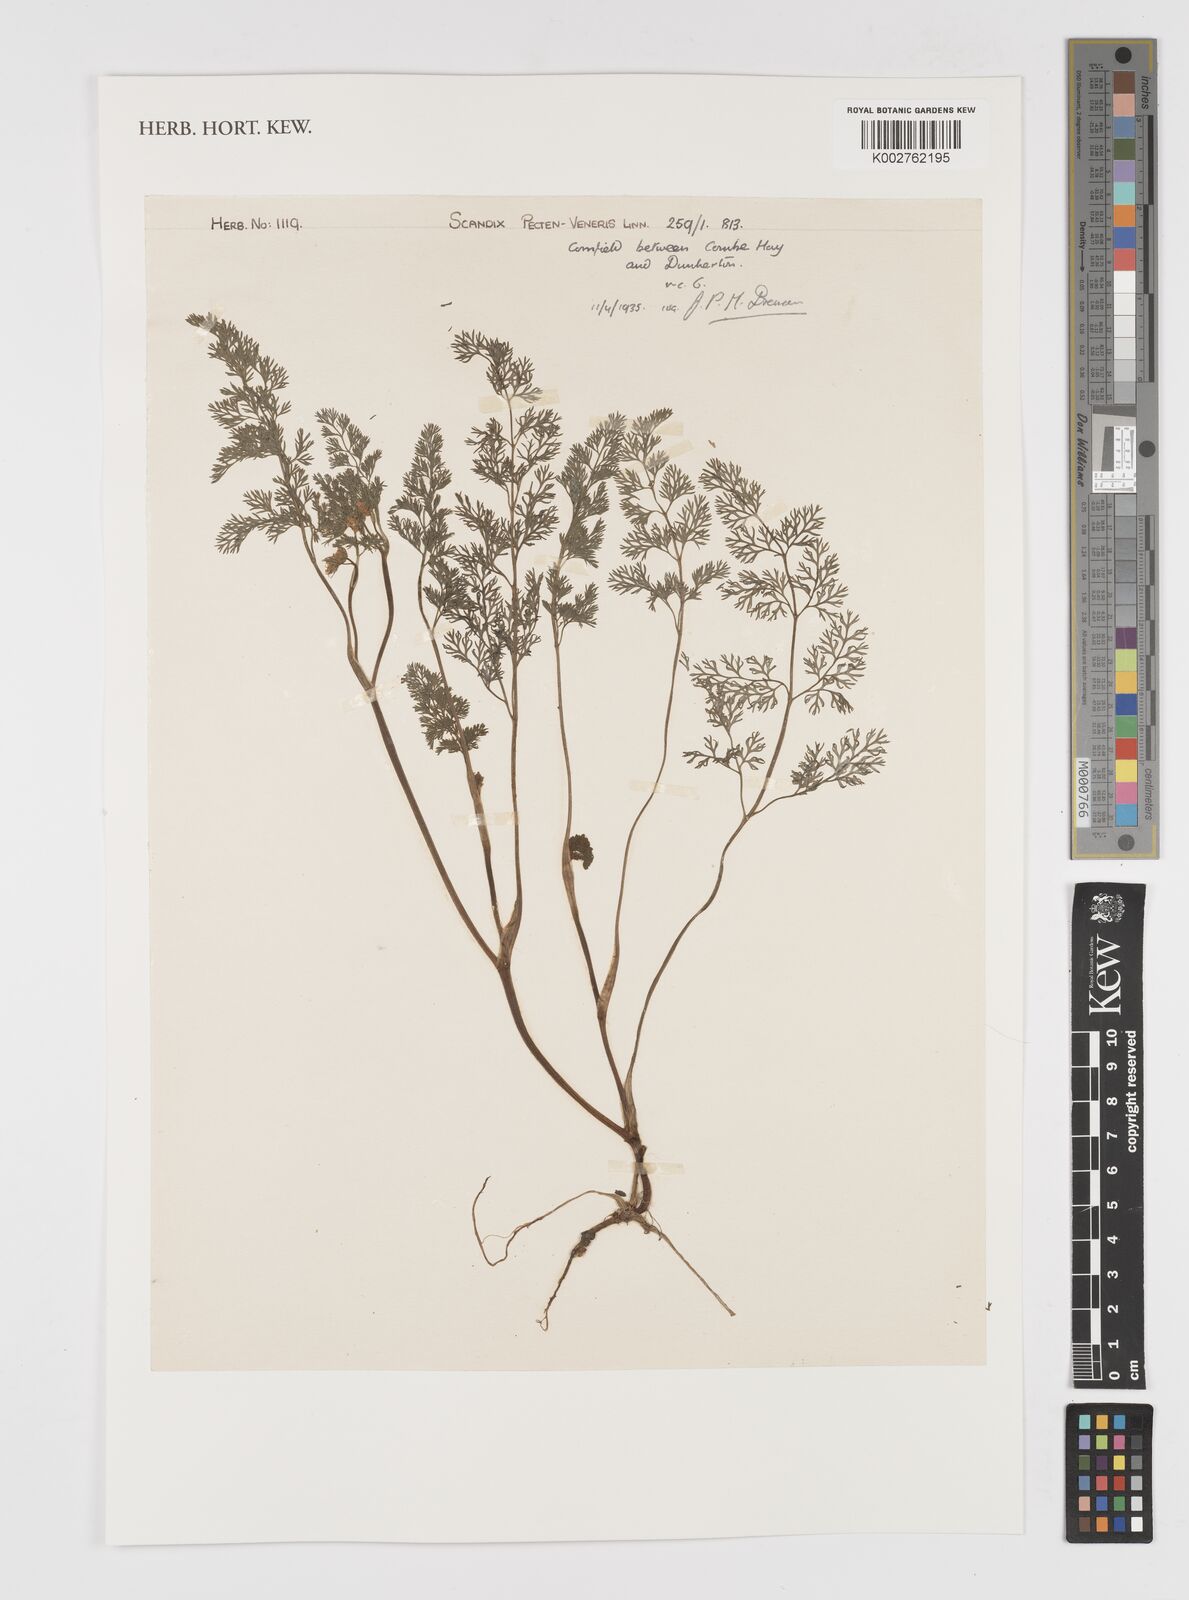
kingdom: Plantae
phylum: Tracheophyta
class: Magnoliopsida
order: Apiales
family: Apiaceae
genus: Scandix
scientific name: Scandix pecten-veneris
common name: Shepherd's-needle
